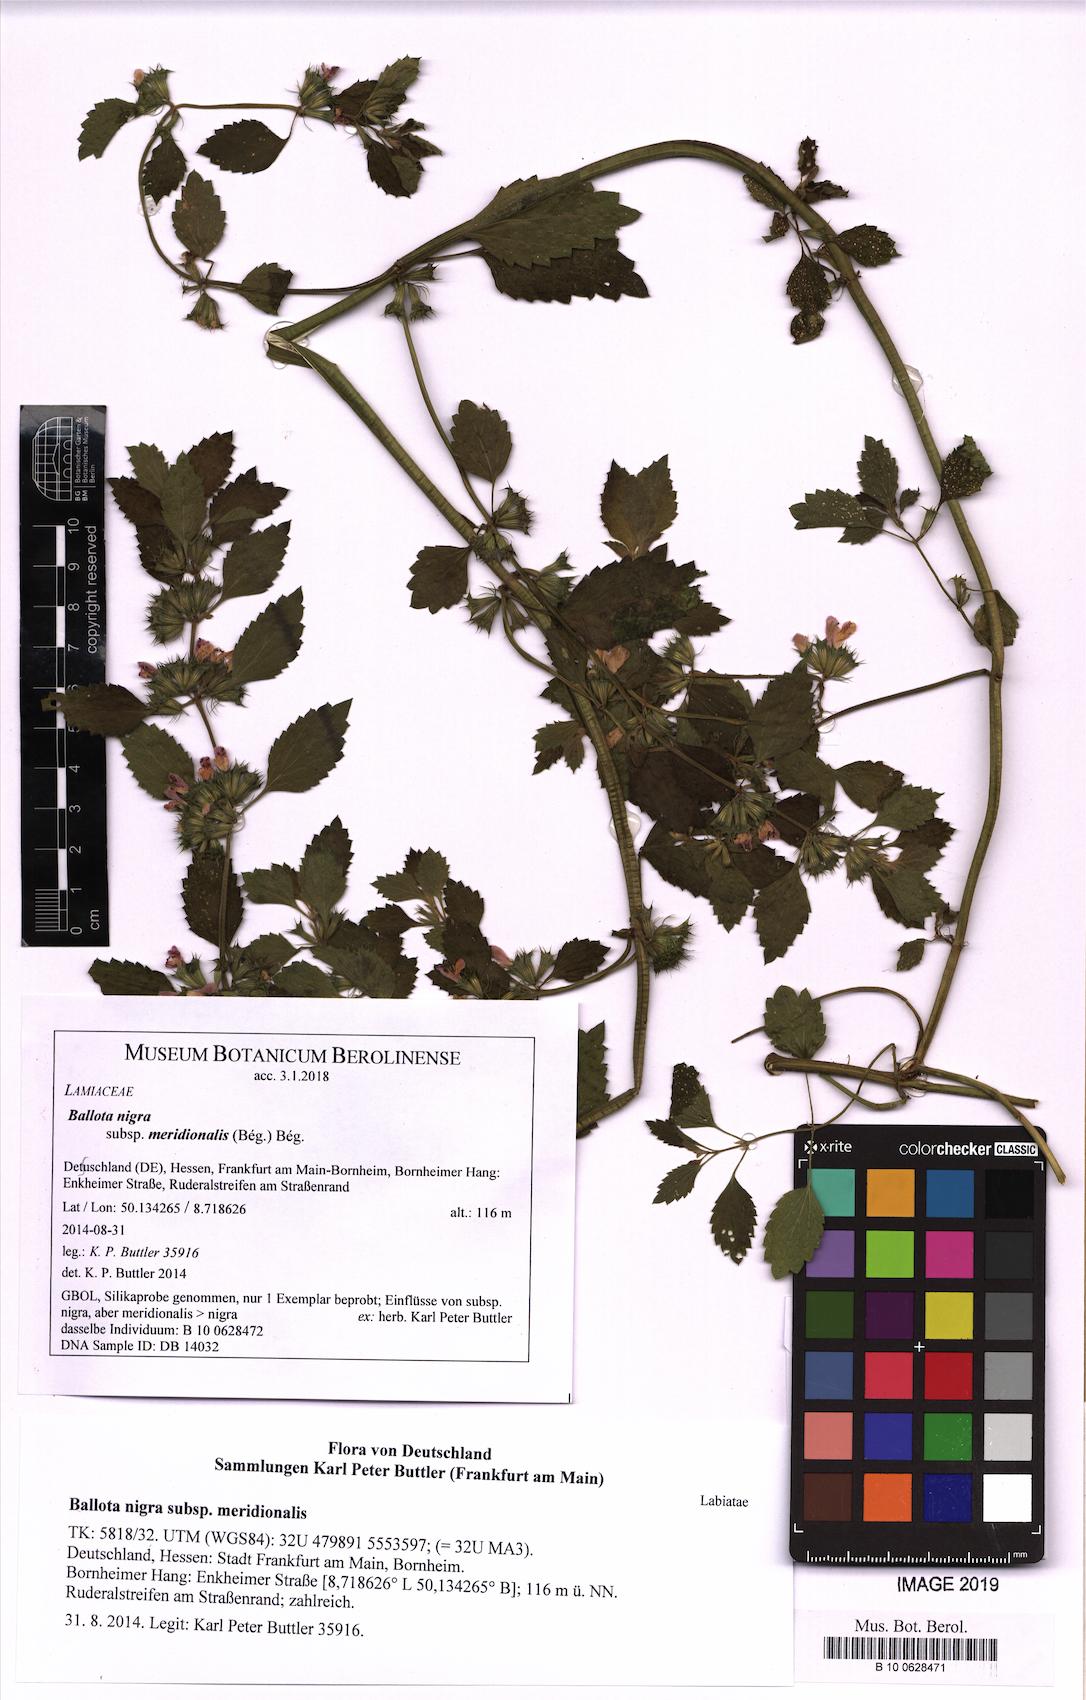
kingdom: Plantae
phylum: Tracheophyta
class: Magnoliopsida
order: Lamiales
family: Lamiaceae
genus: Ballota
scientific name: Ballota nigra
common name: Black horehound
